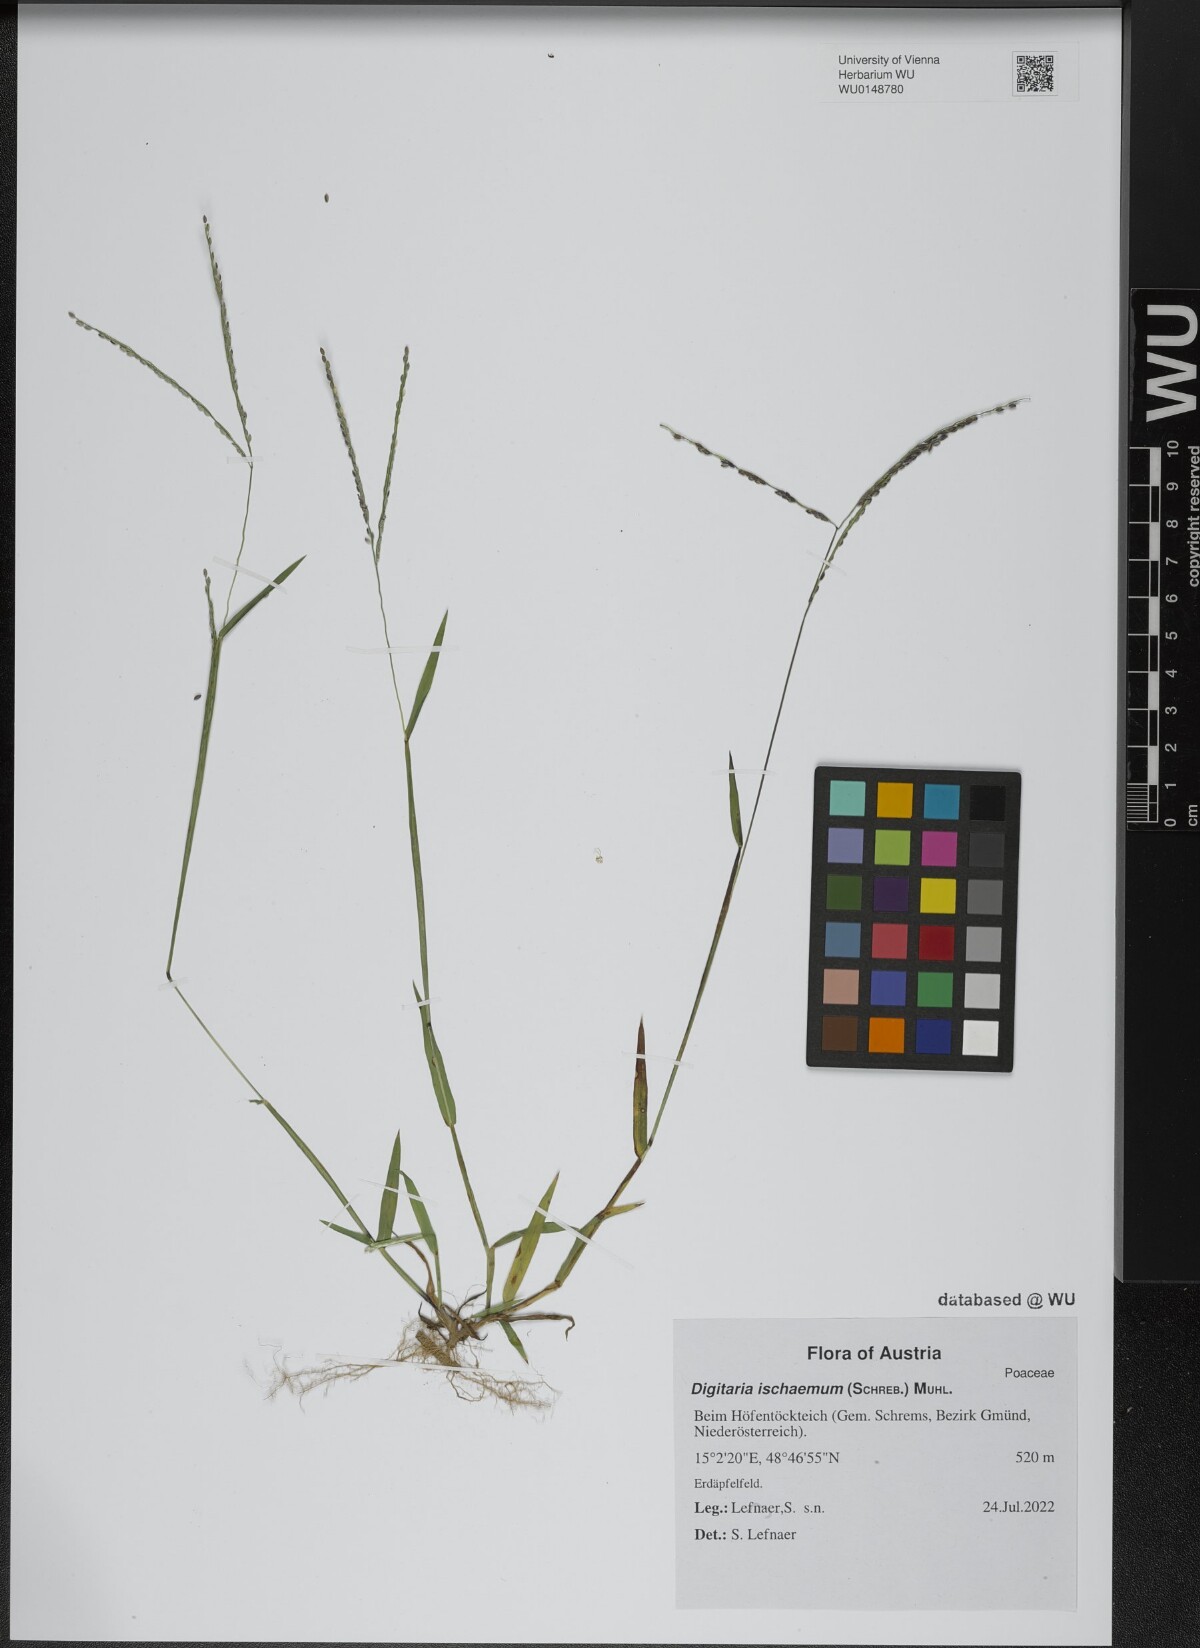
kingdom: Plantae
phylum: Tracheophyta
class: Liliopsida
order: Poales
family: Poaceae
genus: Digitaria
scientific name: Digitaria ischaemum
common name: Smooth crabgrass
